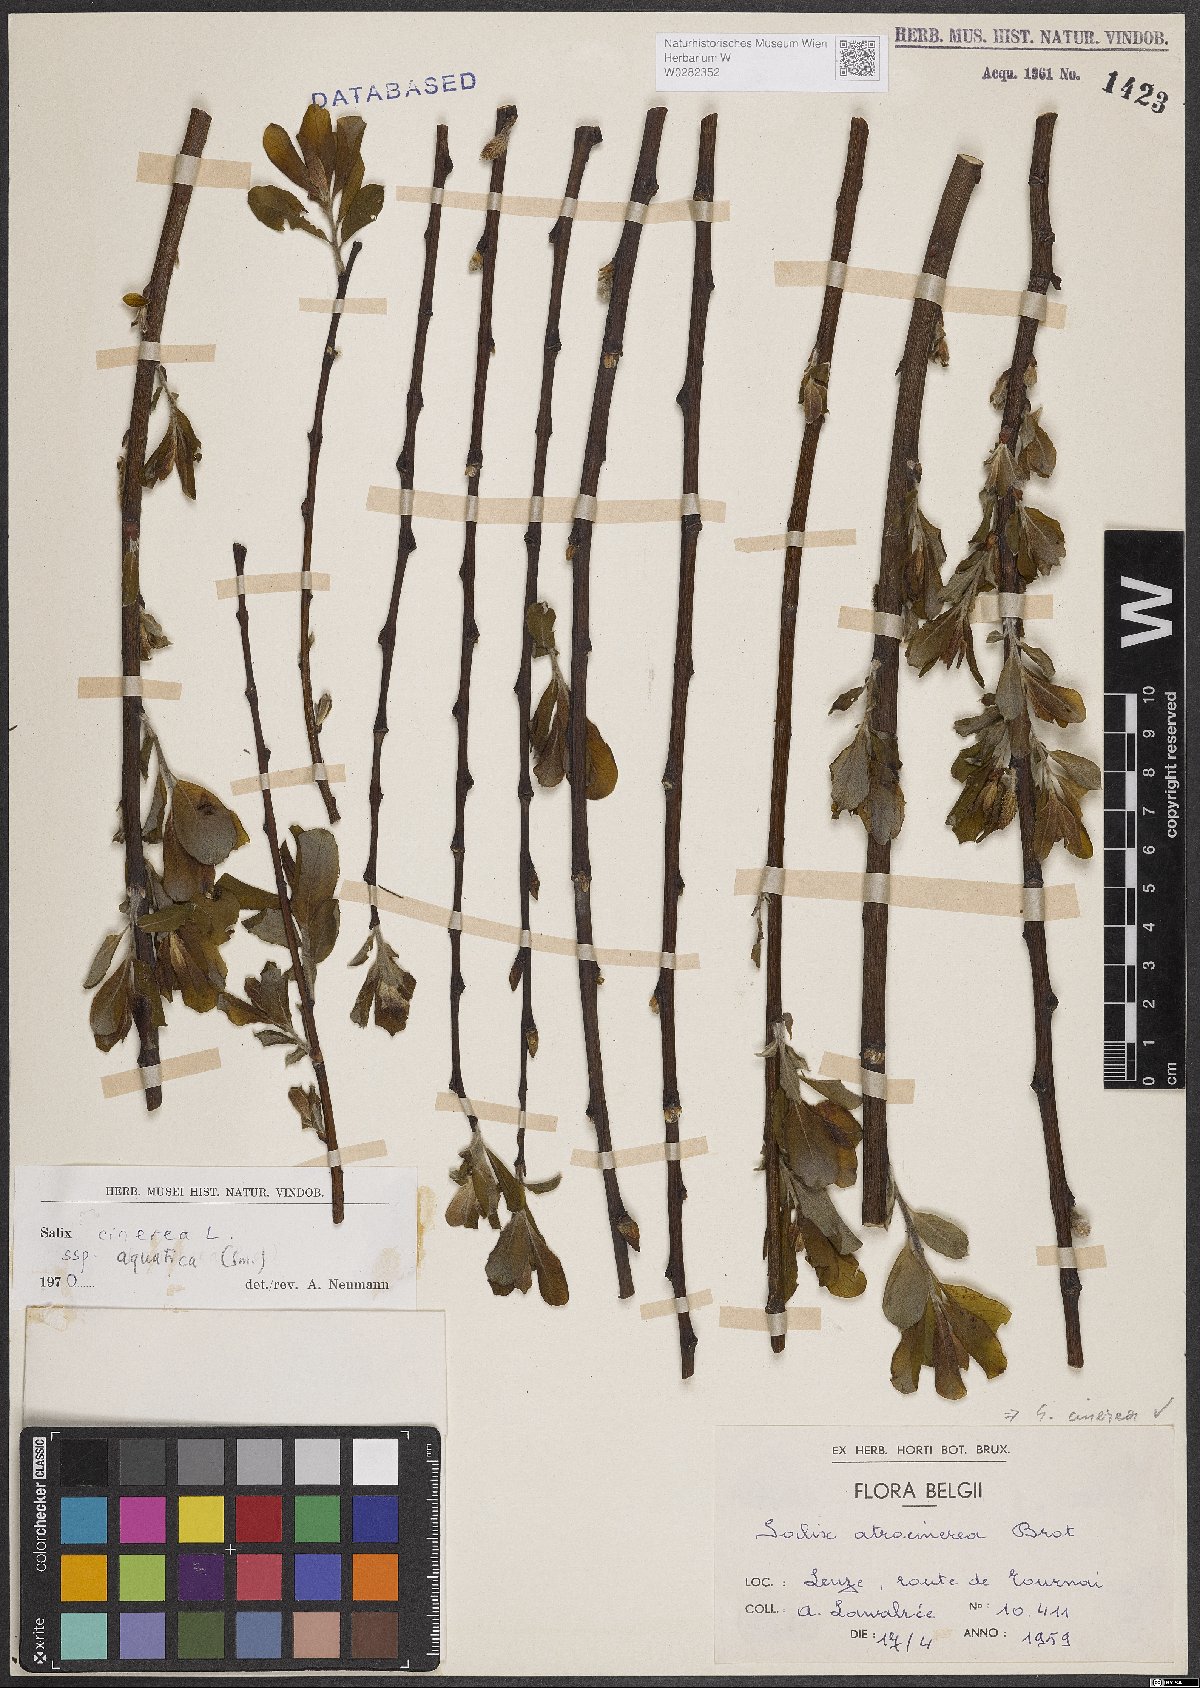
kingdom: Plantae
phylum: Tracheophyta
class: Magnoliopsida
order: Malpighiales
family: Salicaceae
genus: Salix
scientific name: Salix cinerea
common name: Common sallow
